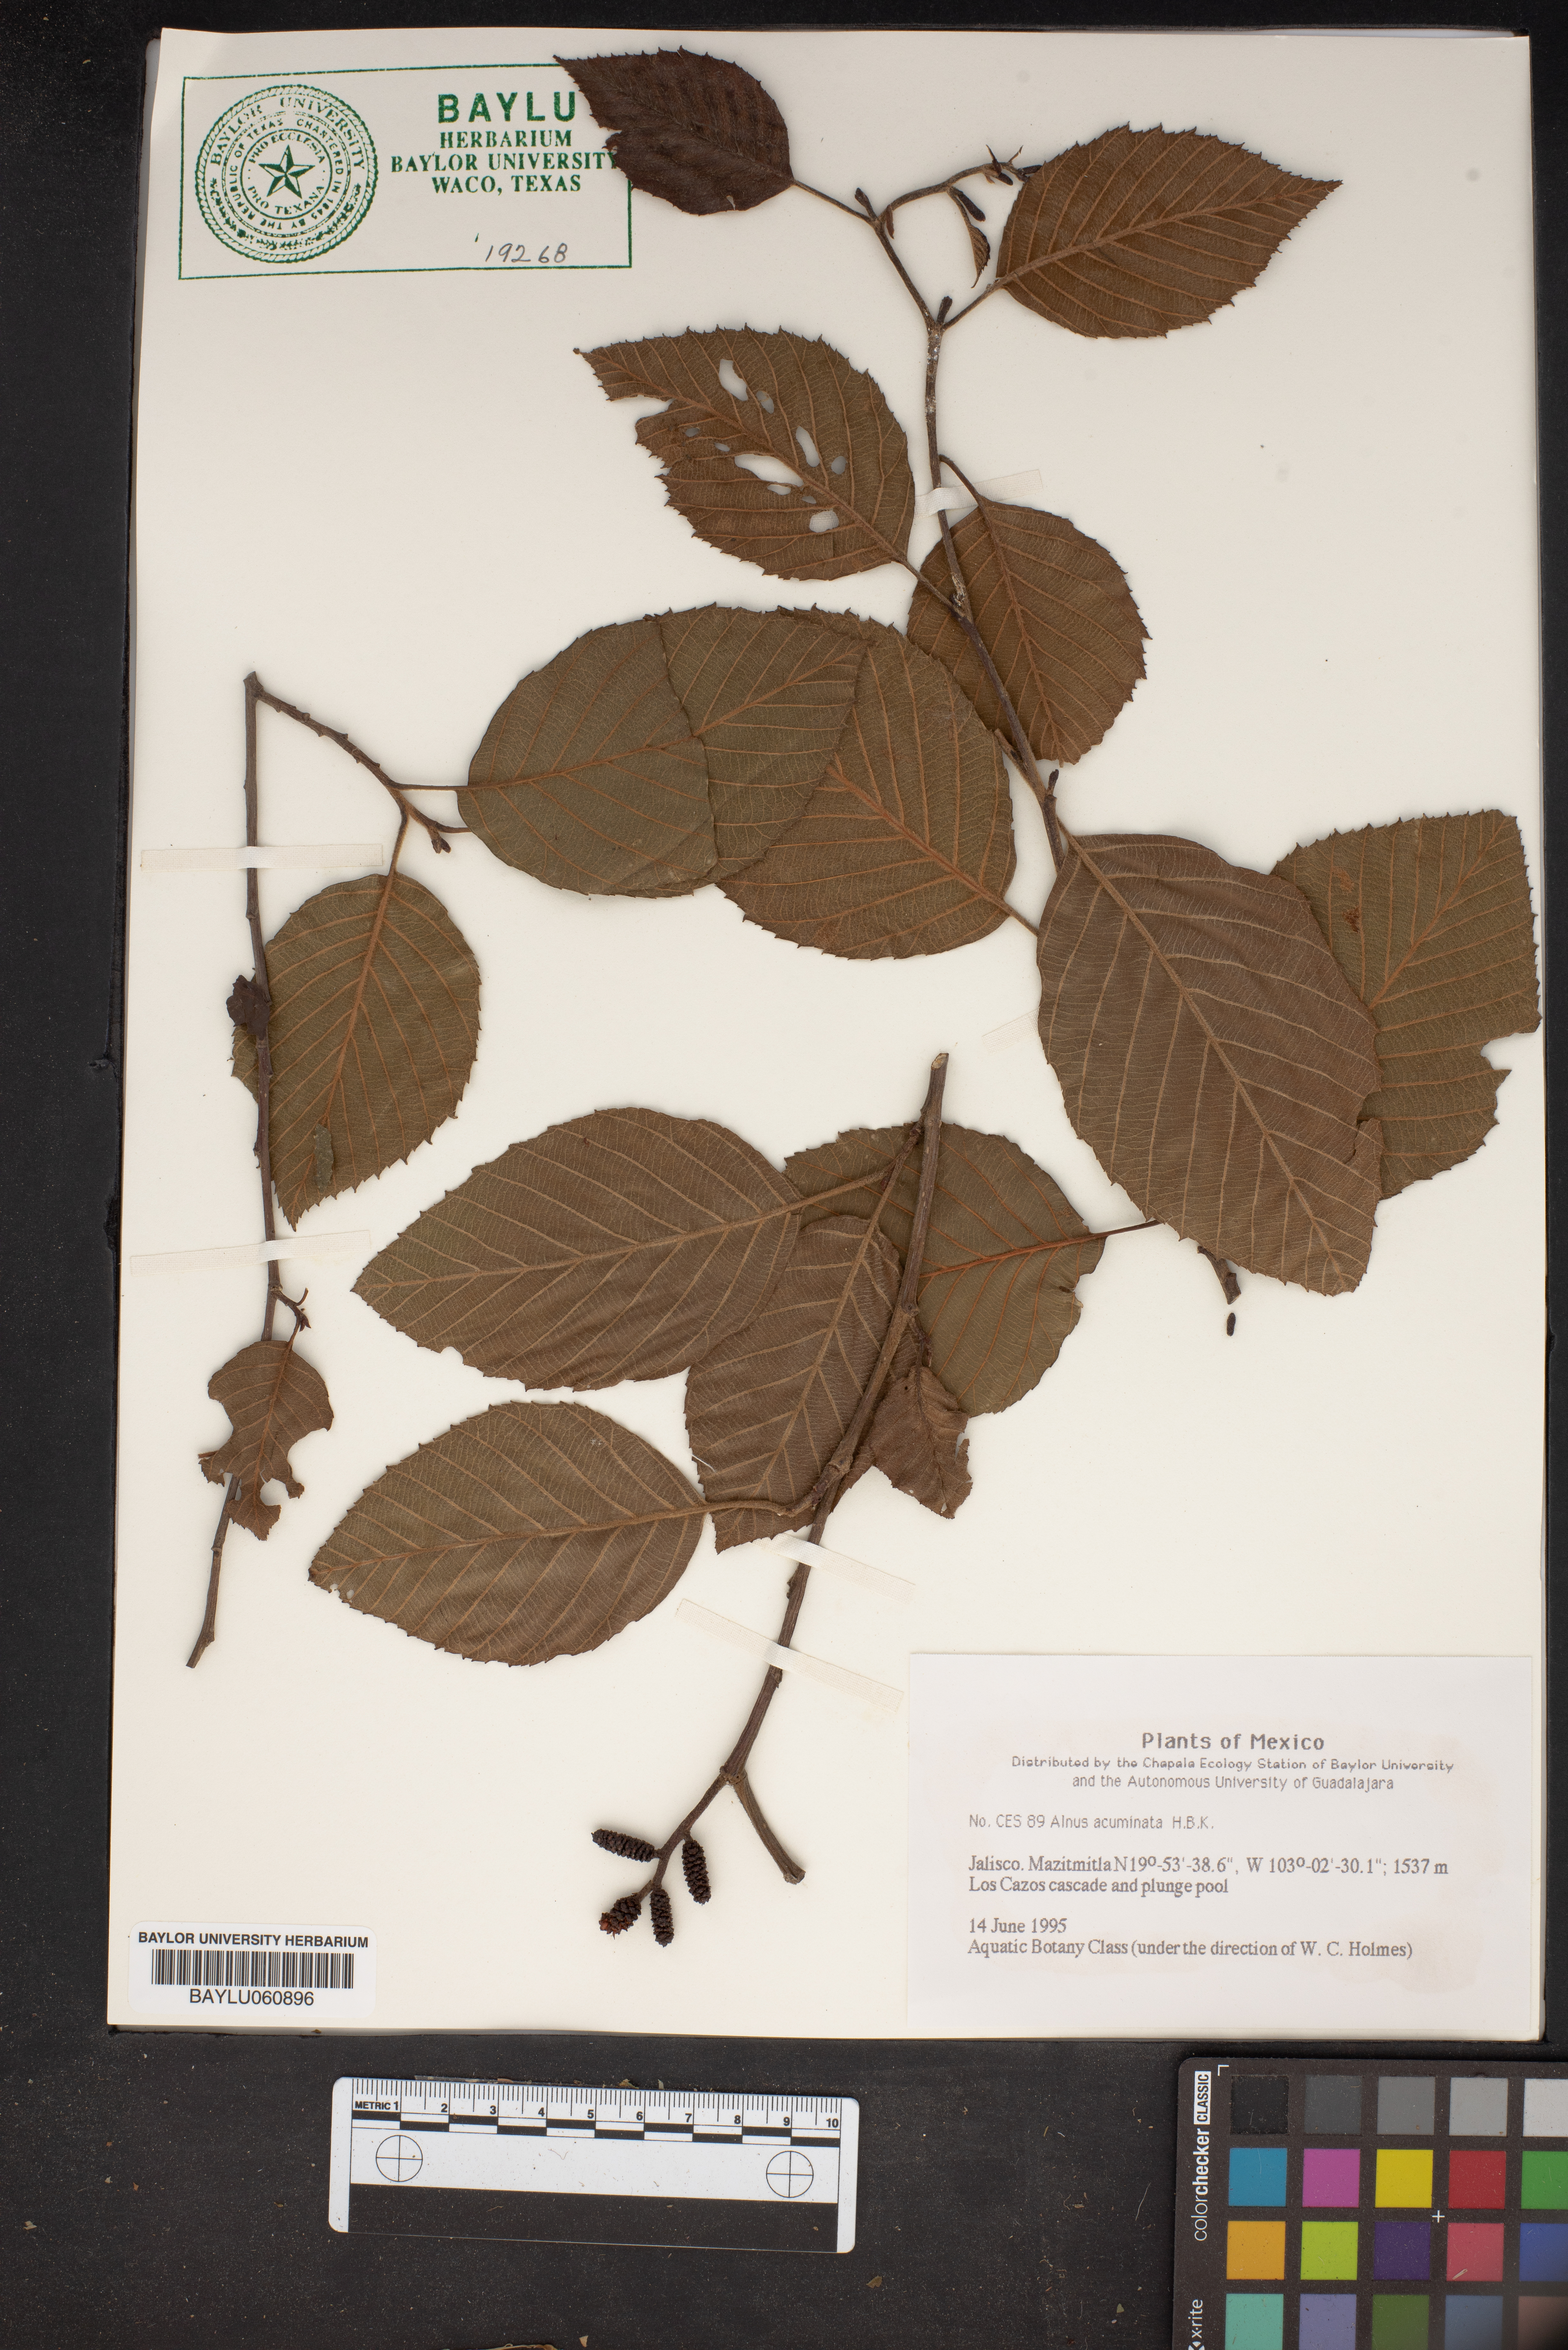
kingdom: Plantae
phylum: Tracheophyta
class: Magnoliopsida
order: Fagales
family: Betulaceae
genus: Alnus
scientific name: Alnus acuminata
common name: Alder
